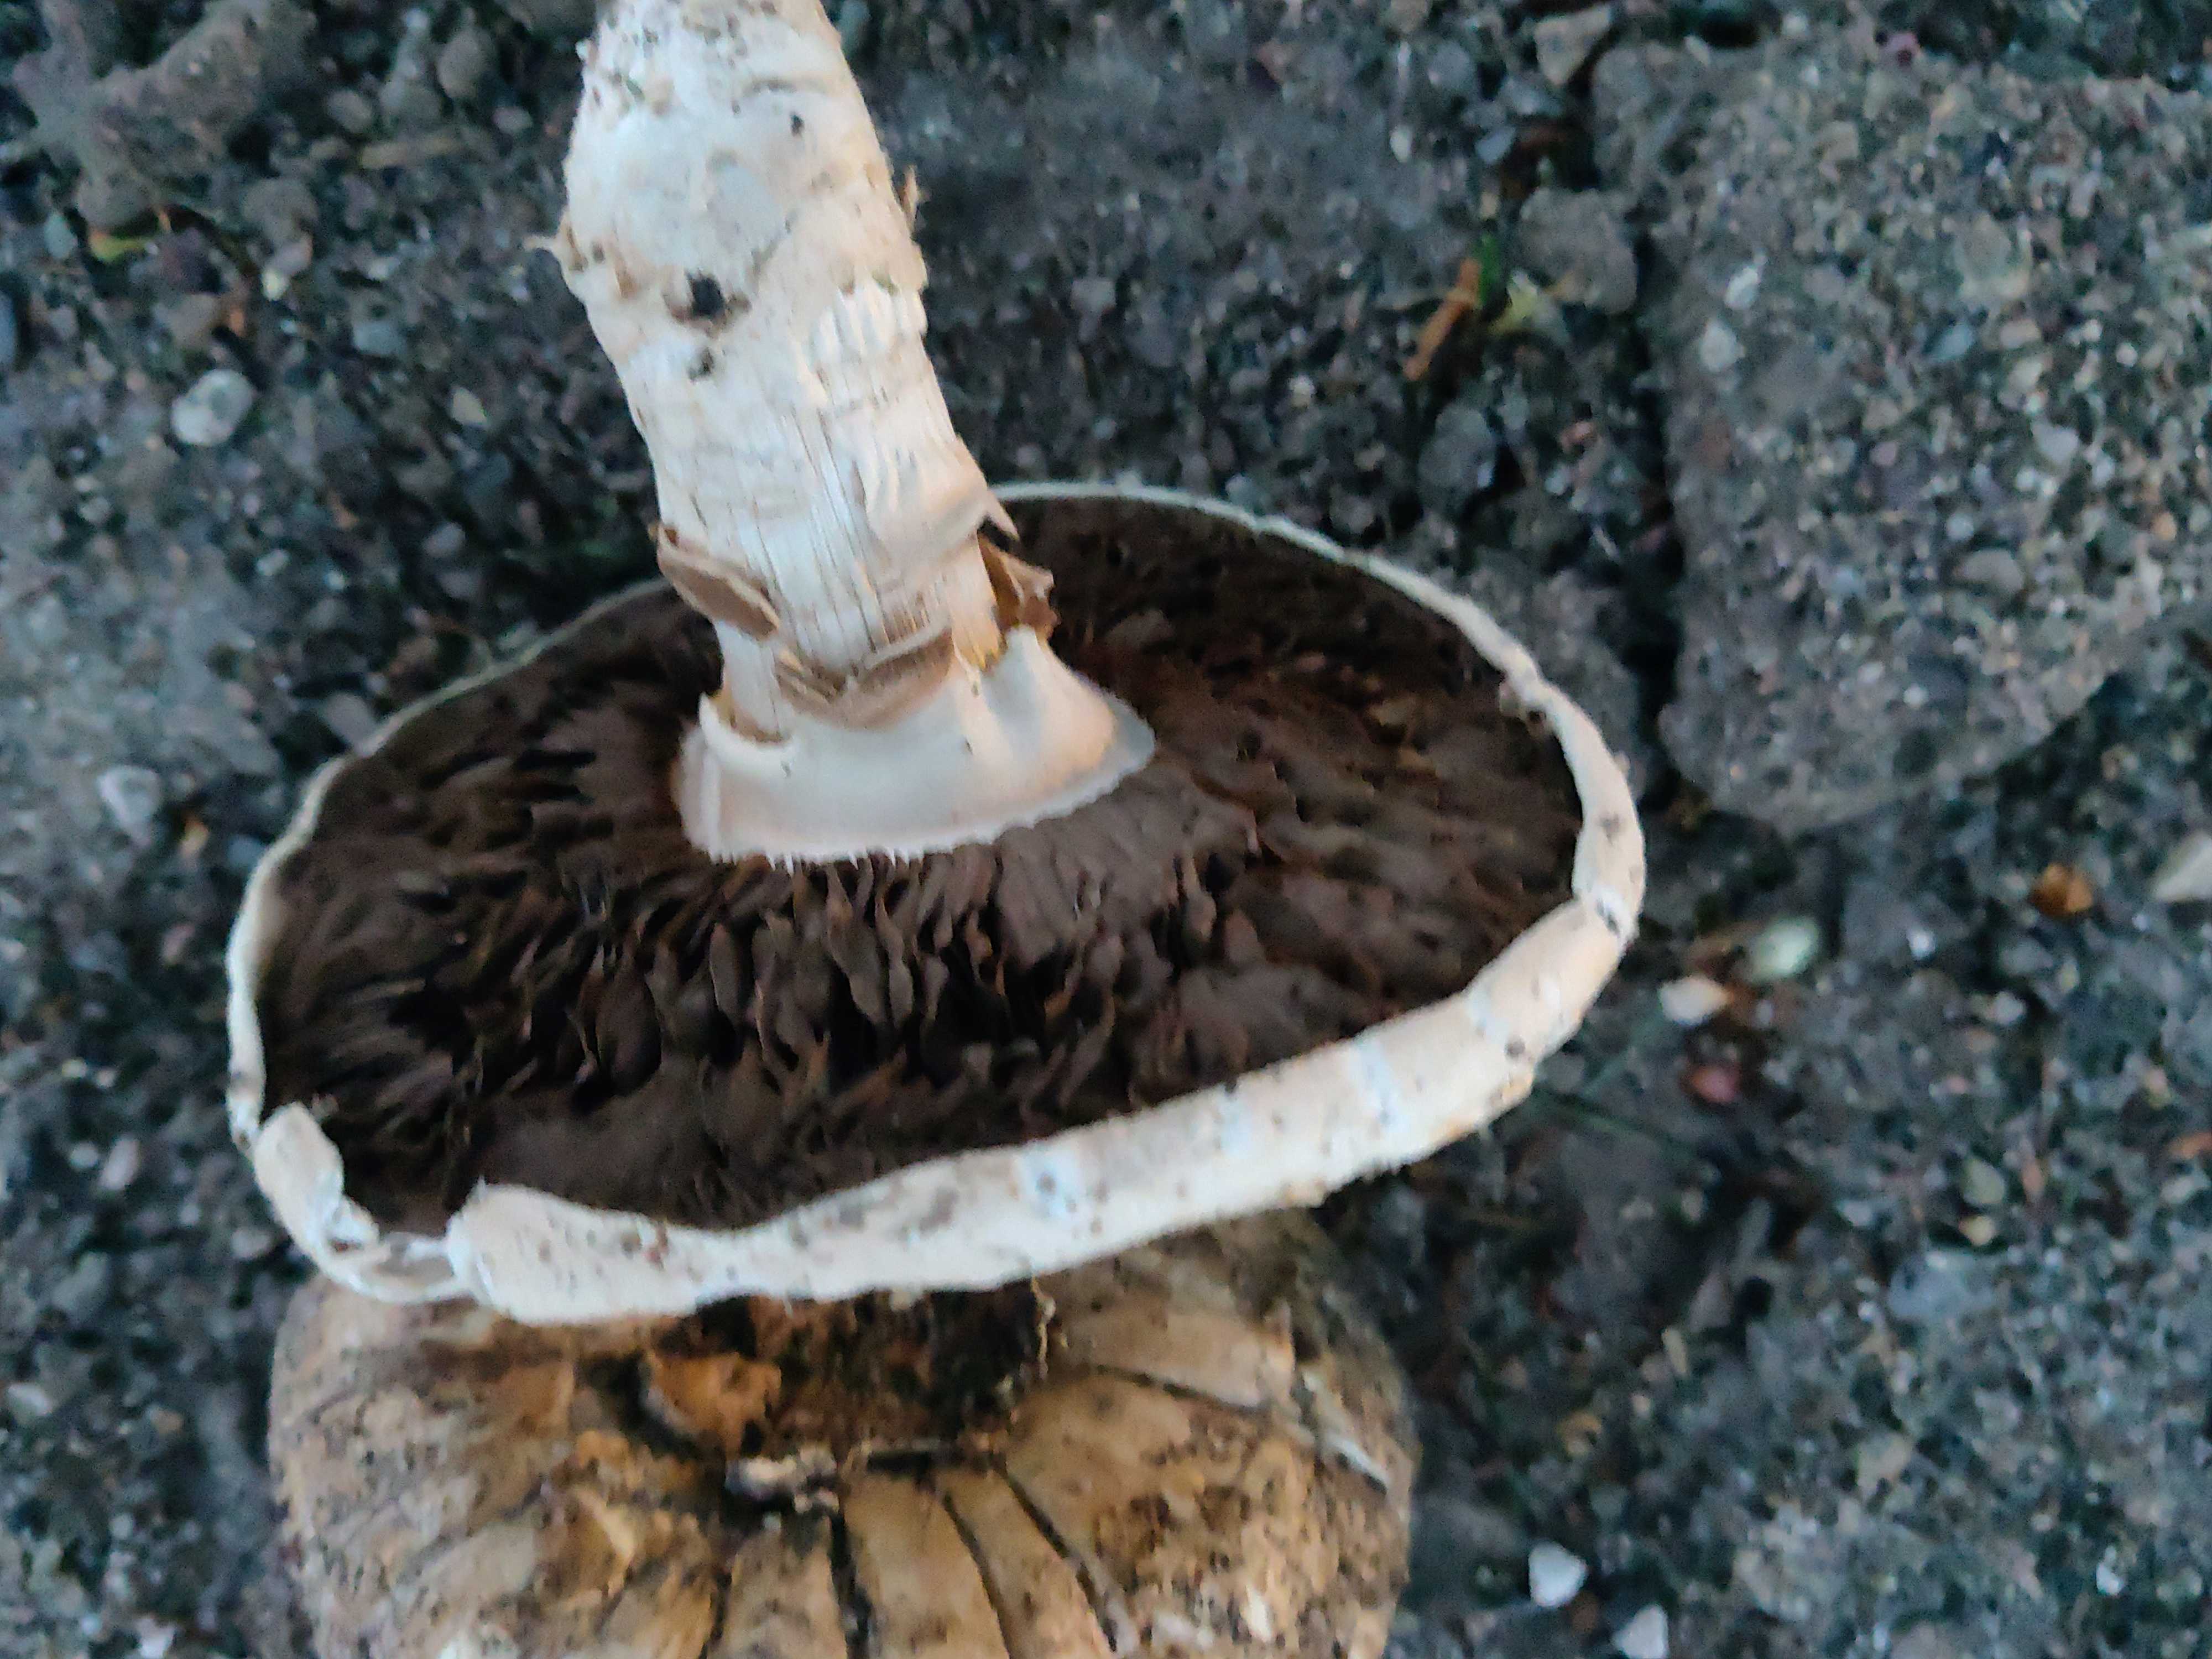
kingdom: Fungi
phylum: Basidiomycota
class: Agaricomycetes
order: Agaricales
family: Agaricaceae
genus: Agaricus
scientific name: Agaricus bitorquis
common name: vej-champignon
